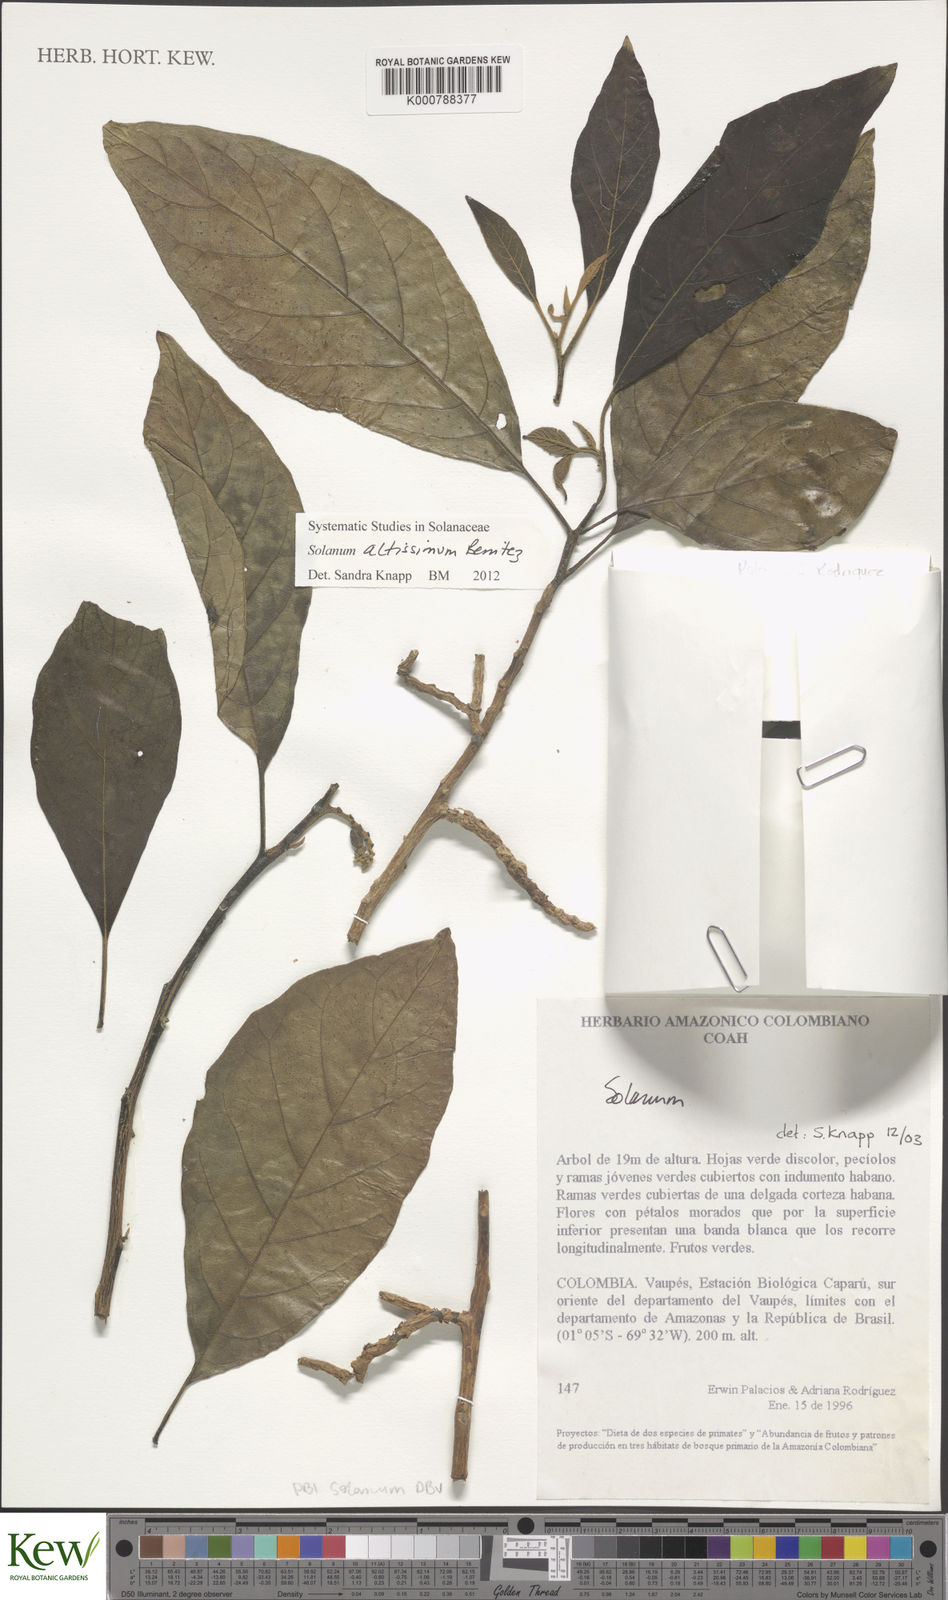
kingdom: Plantae
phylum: Tracheophyta
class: Magnoliopsida
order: Solanales
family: Solanaceae
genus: Solanum
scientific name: Solanum
